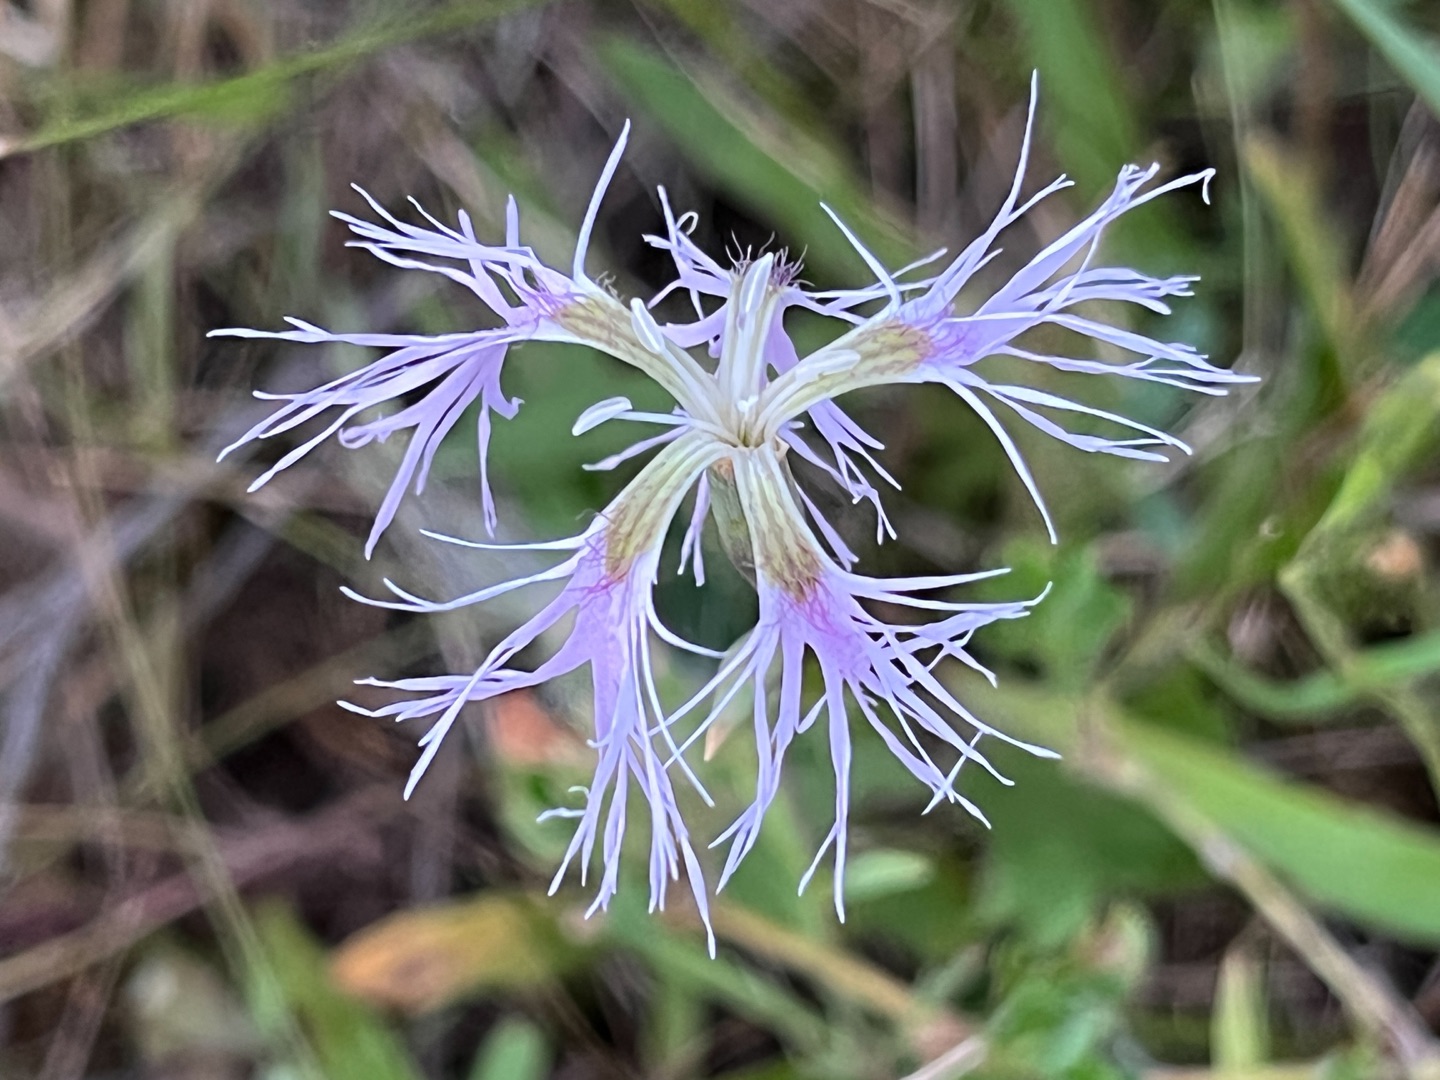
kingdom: Plantae
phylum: Tracheophyta
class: Magnoliopsida
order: Caryophyllales
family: Caryophyllaceae
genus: Dianthus
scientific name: Dianthus superbus
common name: Strand-nellike
